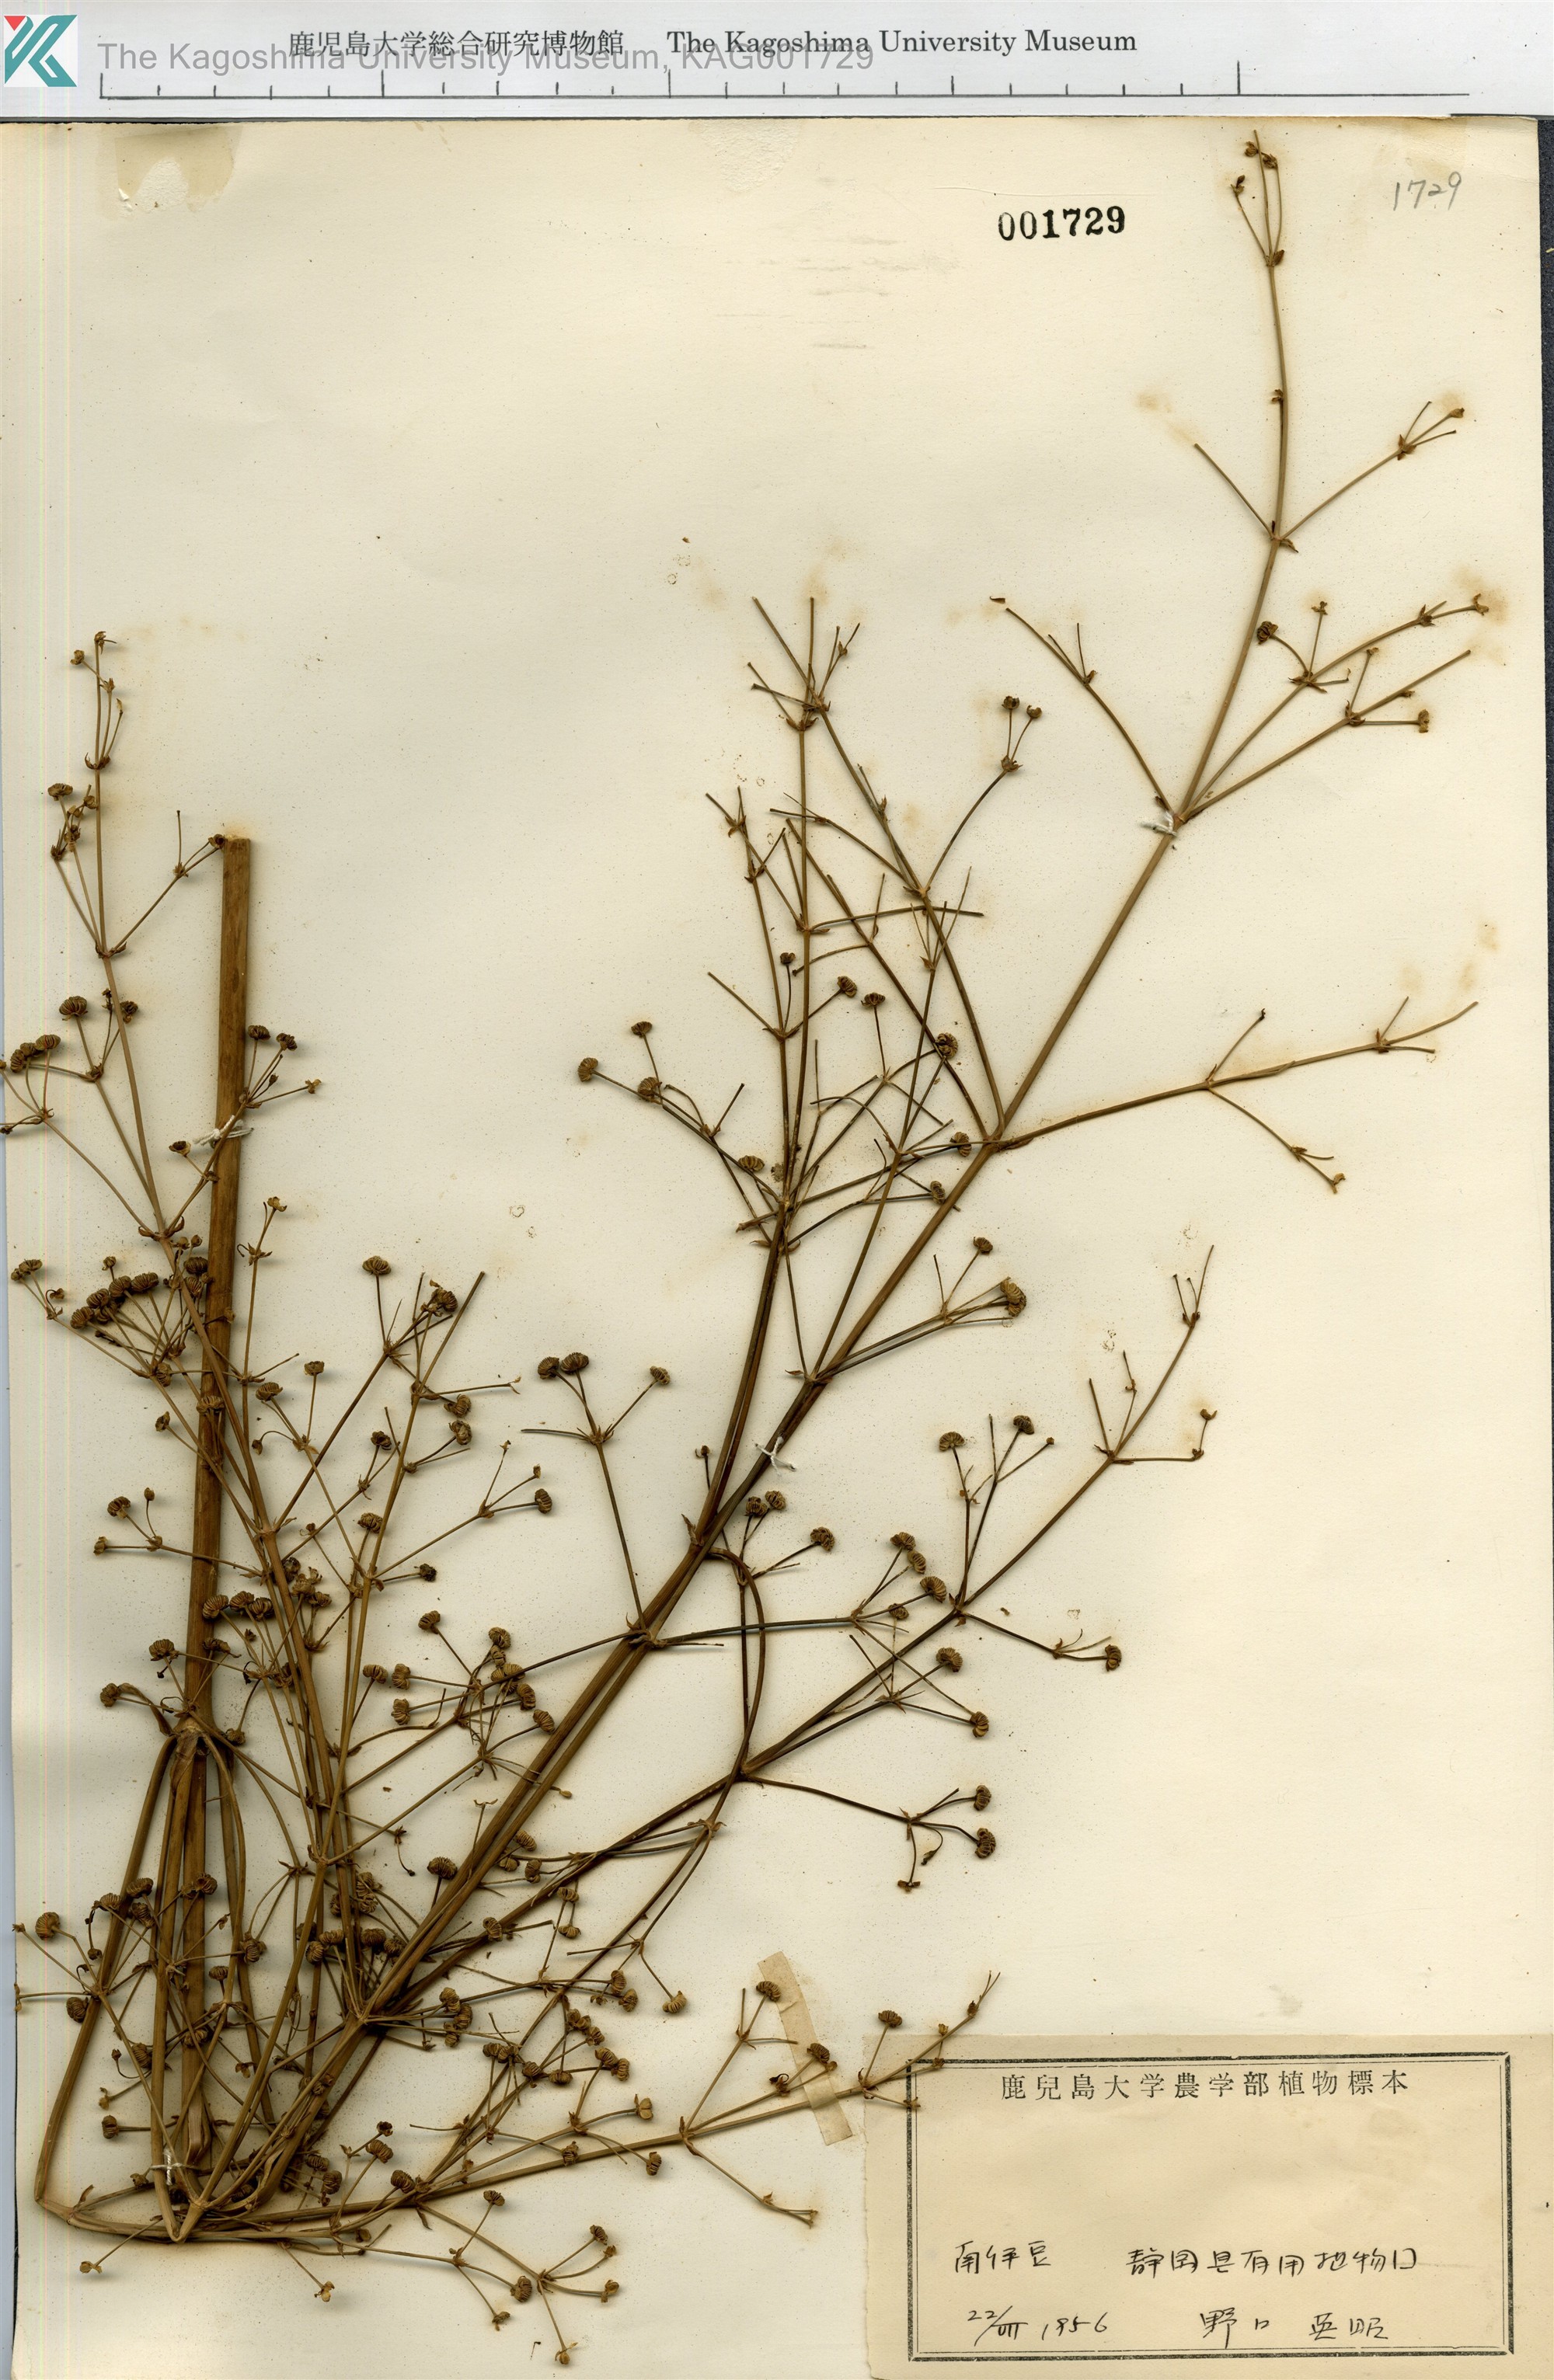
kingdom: Plantae
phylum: Tracheophyta
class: Liliopsida
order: Alismatales
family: Alismataceae
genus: Alisma
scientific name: Alisma canaliculatum
